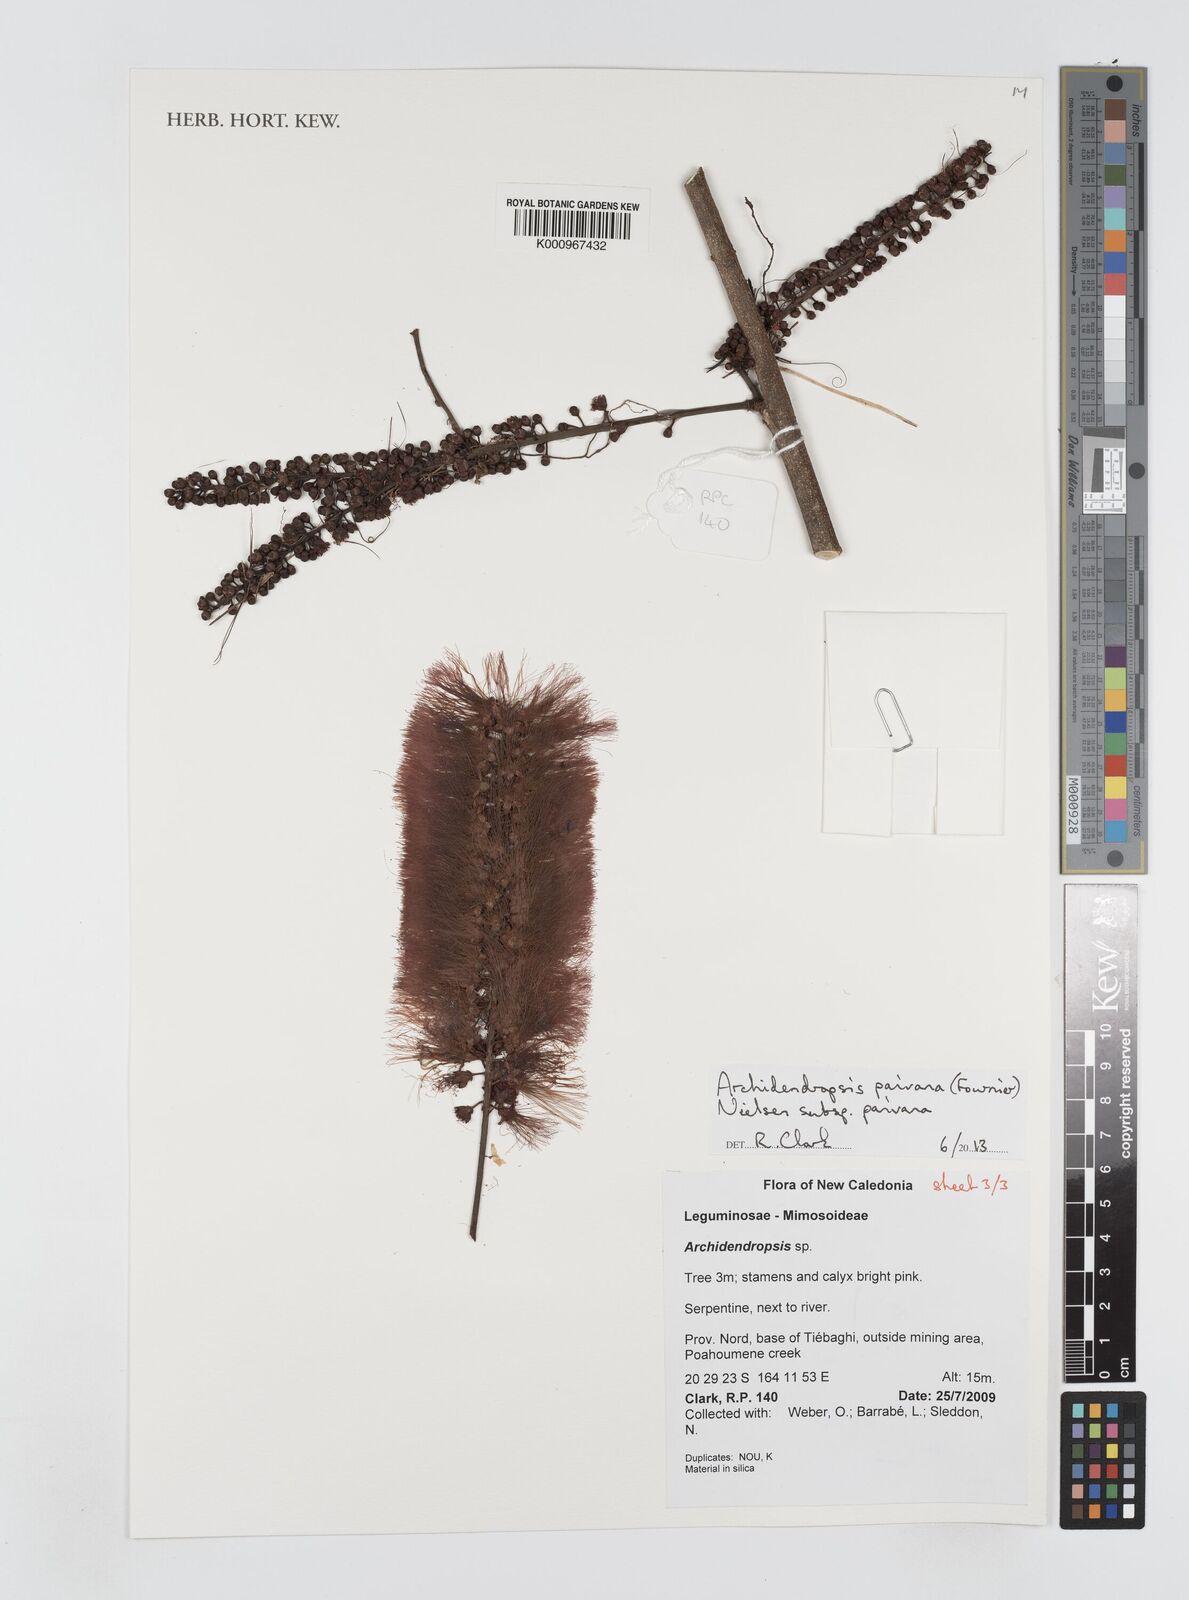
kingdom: Plantae
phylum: Tracheophyta
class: Magnoliopsida
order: Fabales
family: Fabaceae
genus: Archidendropsis
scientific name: Archidendropsis paivana
